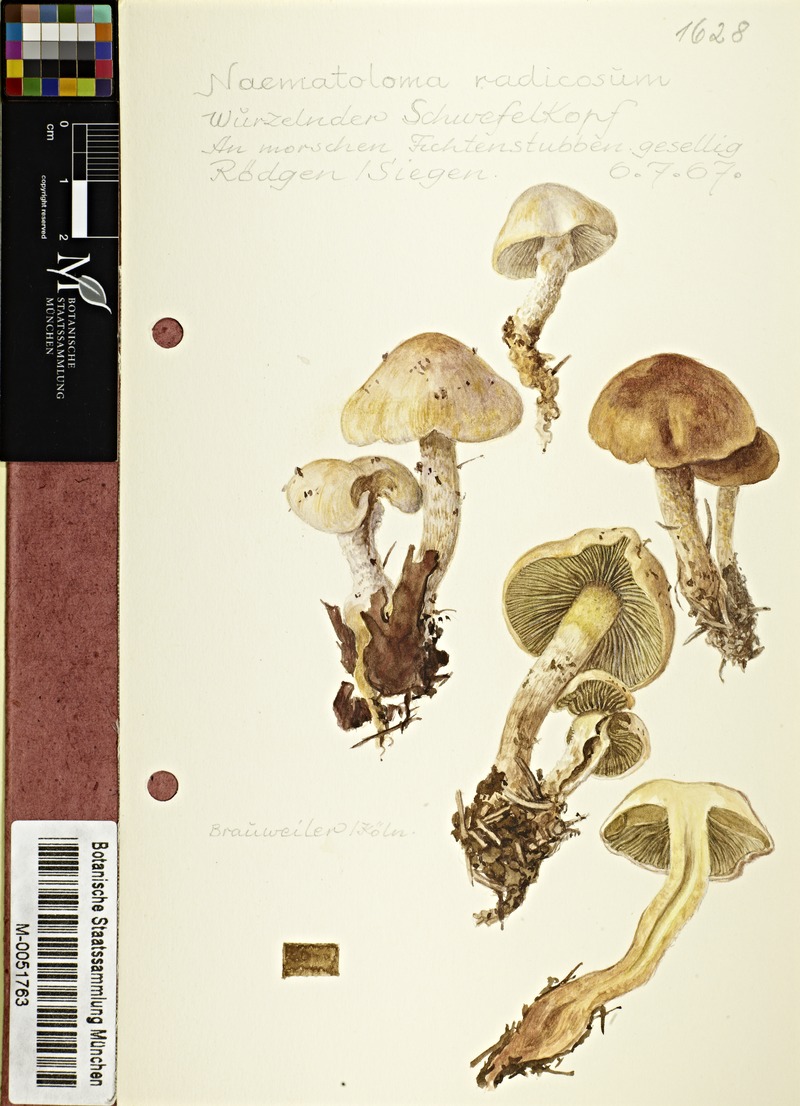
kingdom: Fungi
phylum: Basidiomycota
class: Agaricomycetes
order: Agaricales
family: Strophariaceae
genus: Hypholoma
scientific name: Hypholoma radicosum
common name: Rooting brownie
